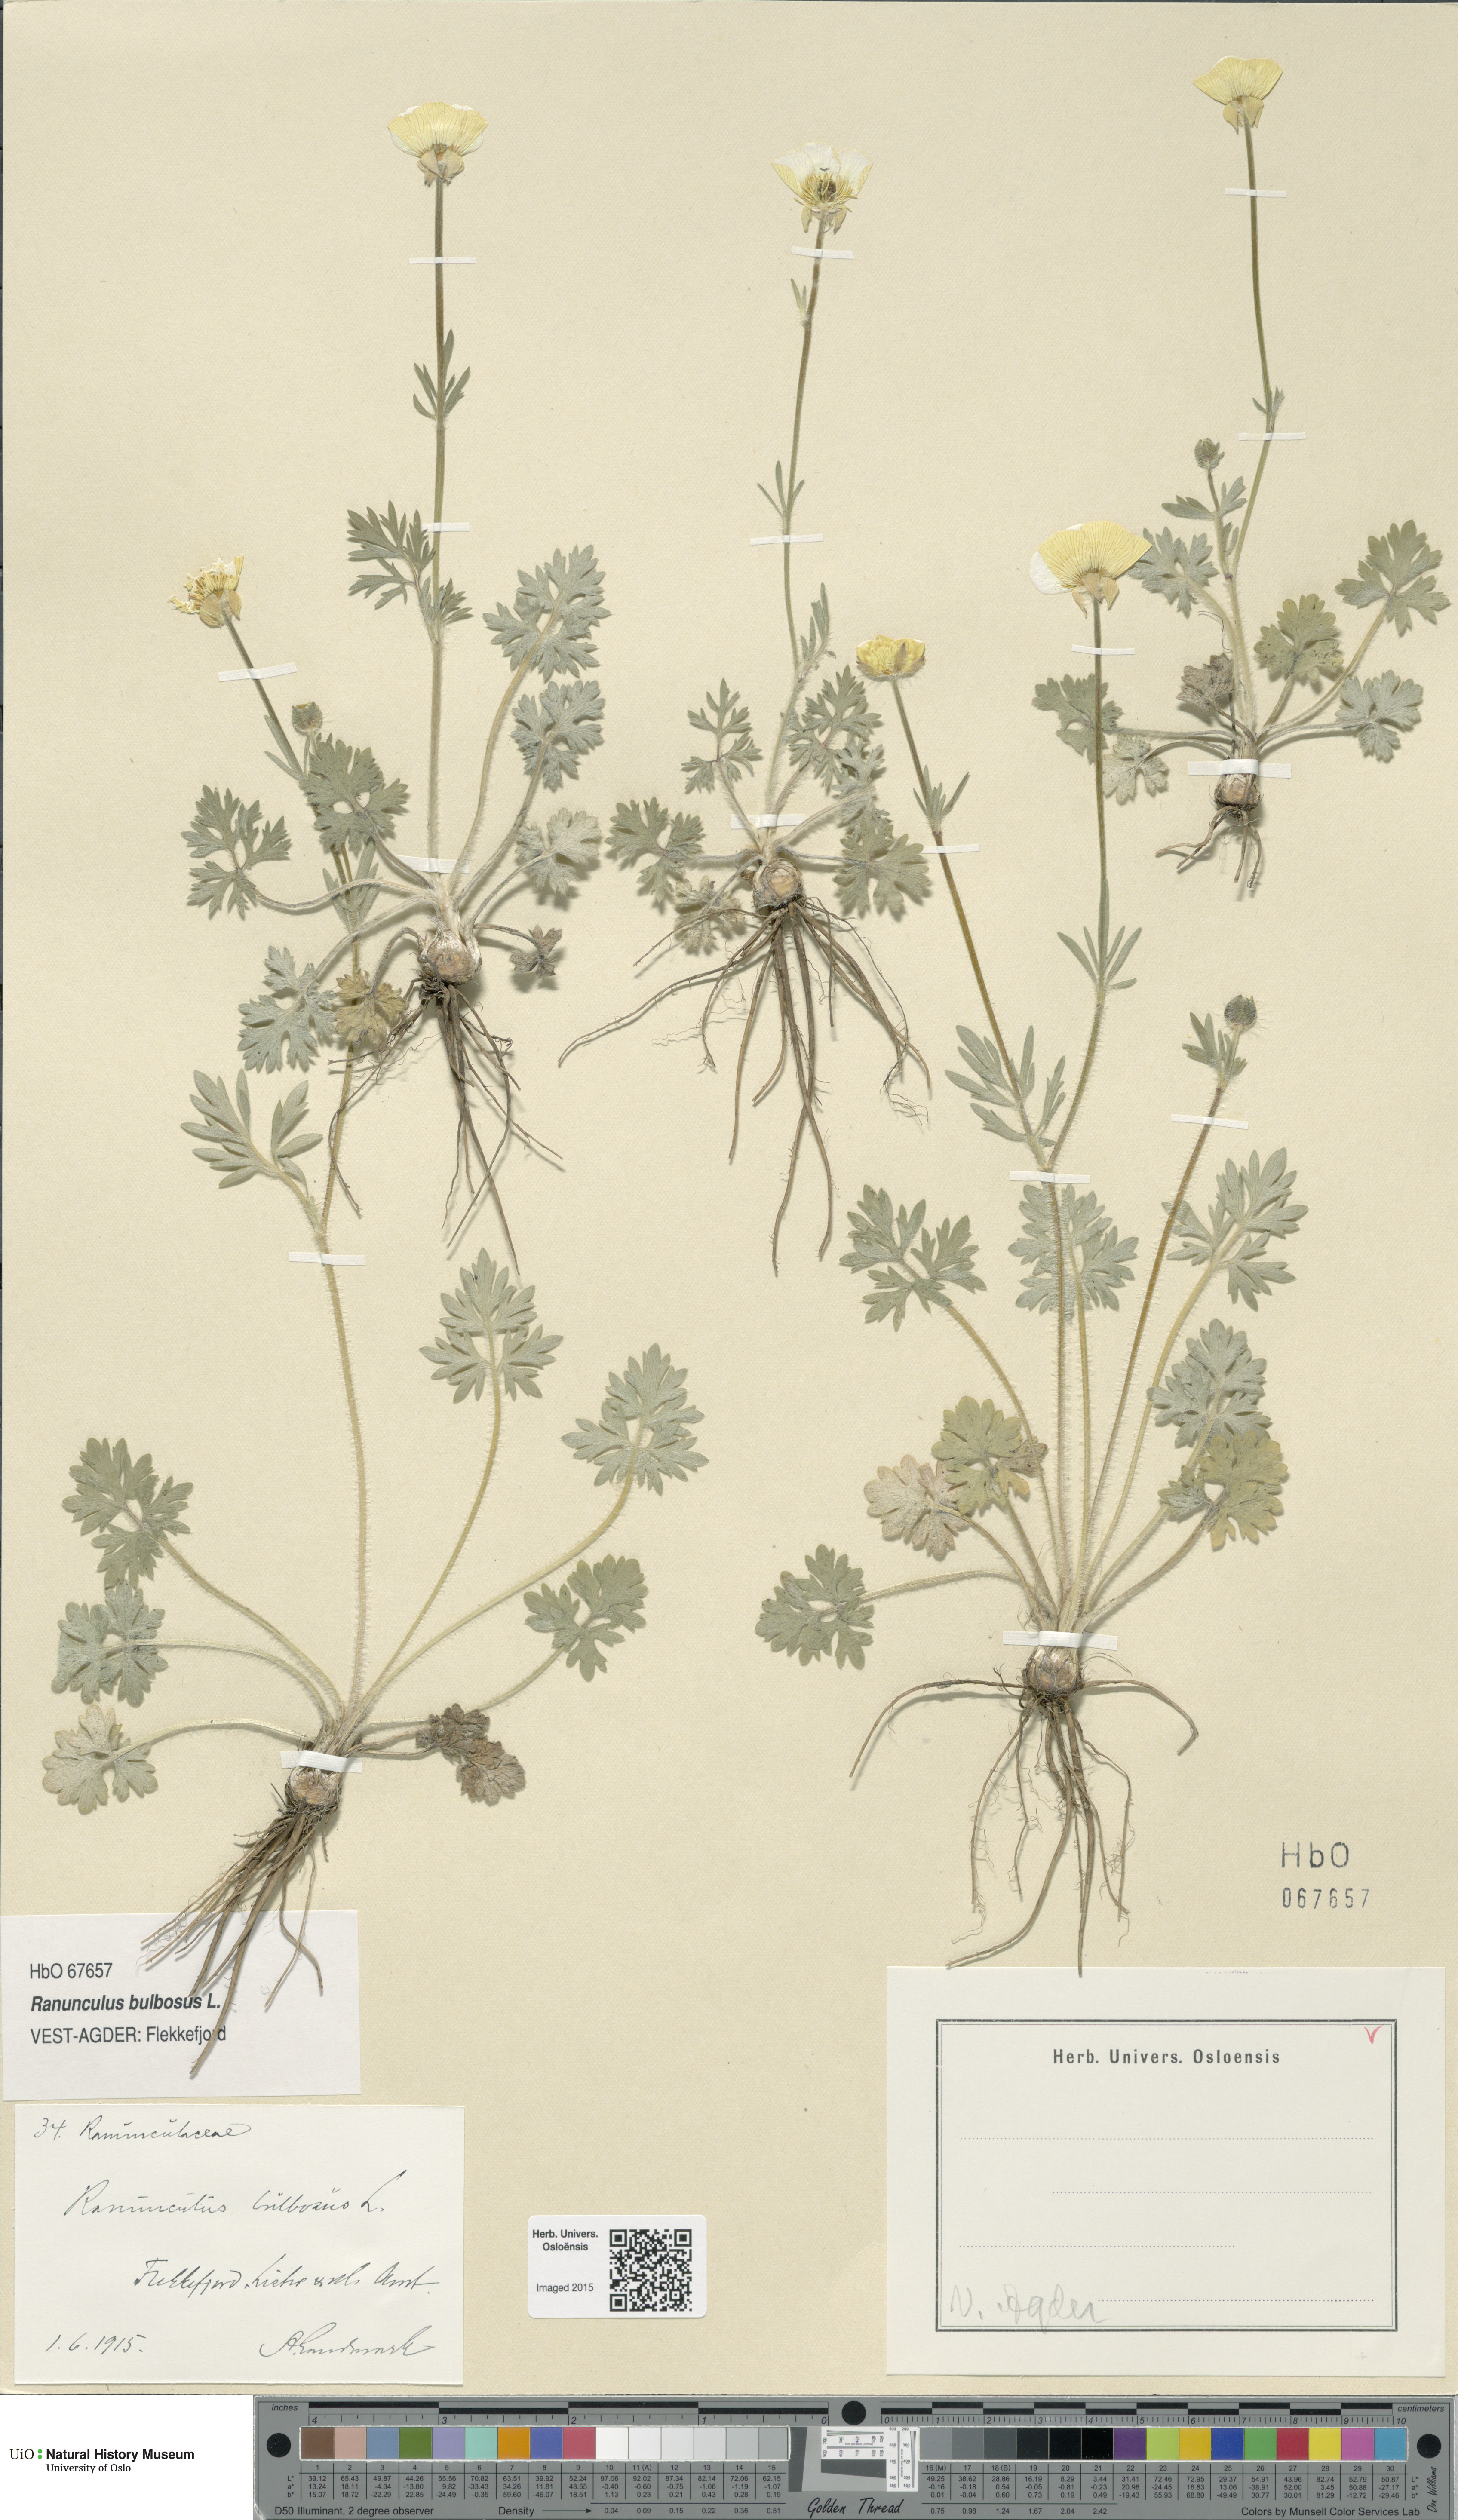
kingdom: Plantae
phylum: Tracheophyta
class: Magnoliopsida
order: Ranunculales
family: Ranunculaceae
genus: Ranunculus
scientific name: Ranunculus bulbosus
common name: Bulbous buttercup
